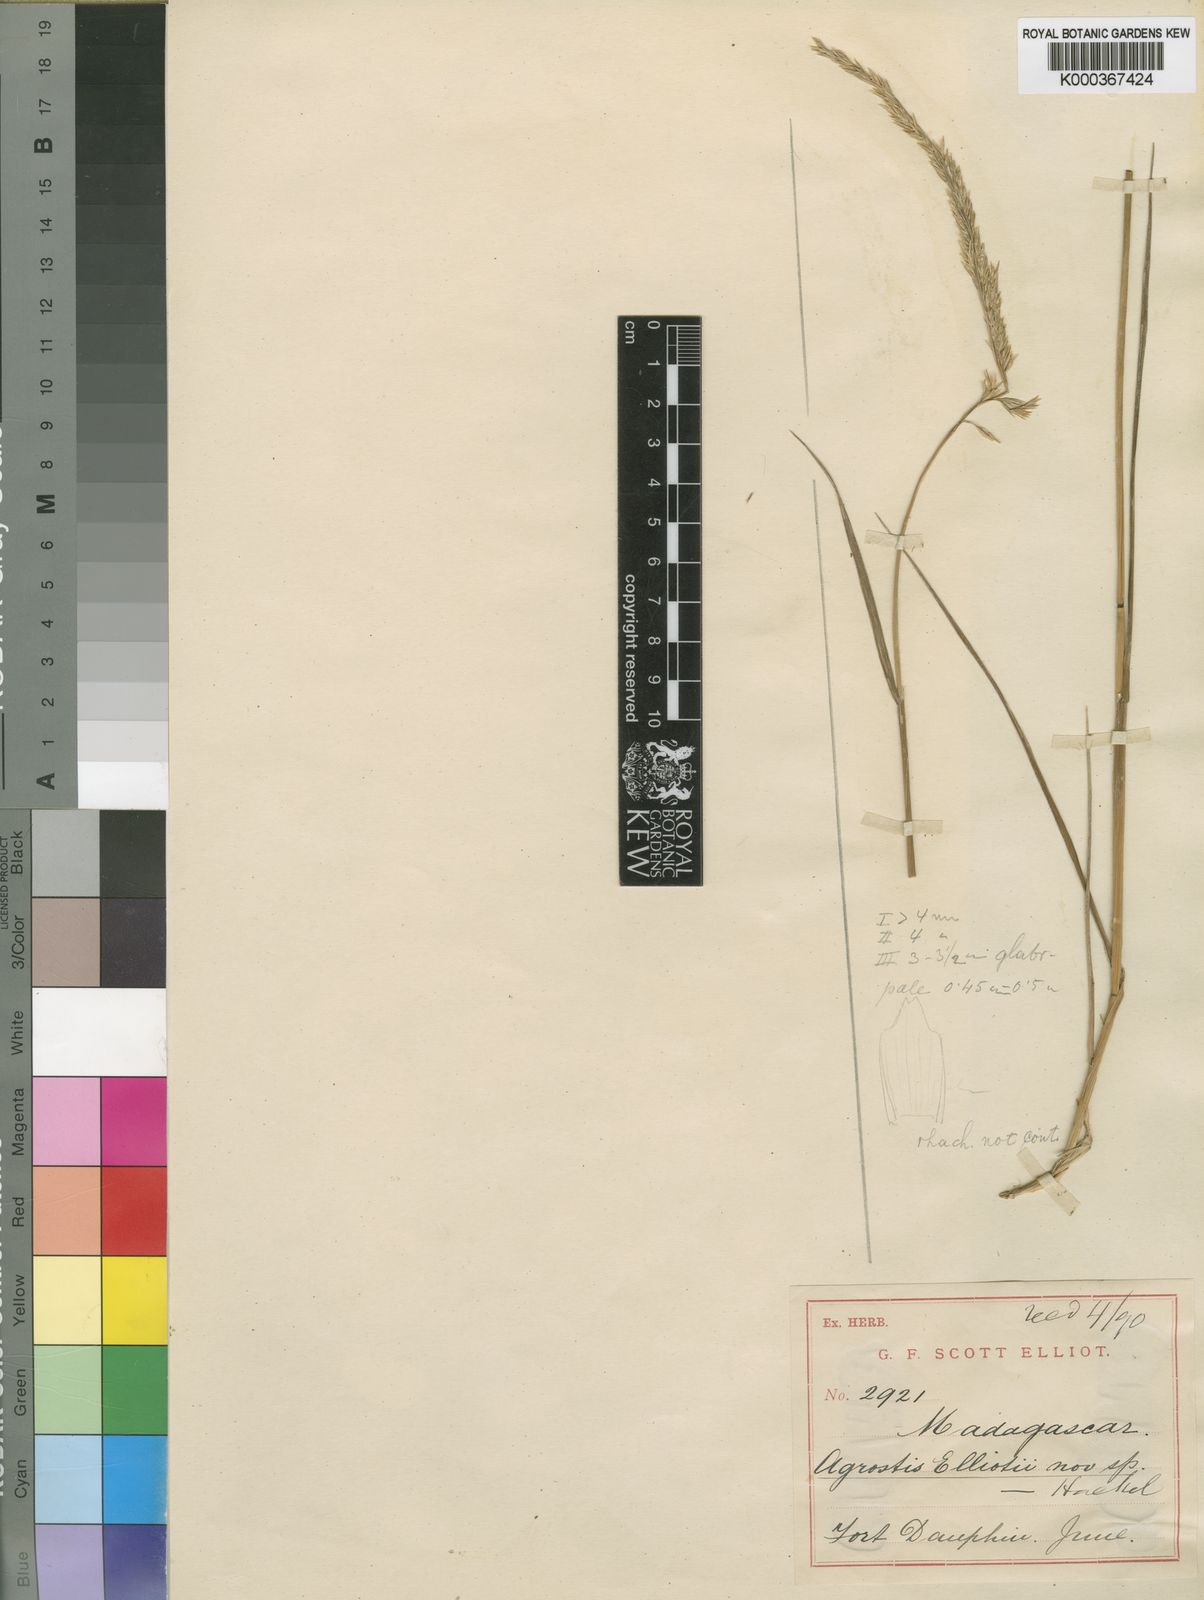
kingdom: Plantae
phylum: Tracheophyta
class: Liliopsida
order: Poales
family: Poaceae
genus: Agrostis
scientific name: Agrostis elliotii
